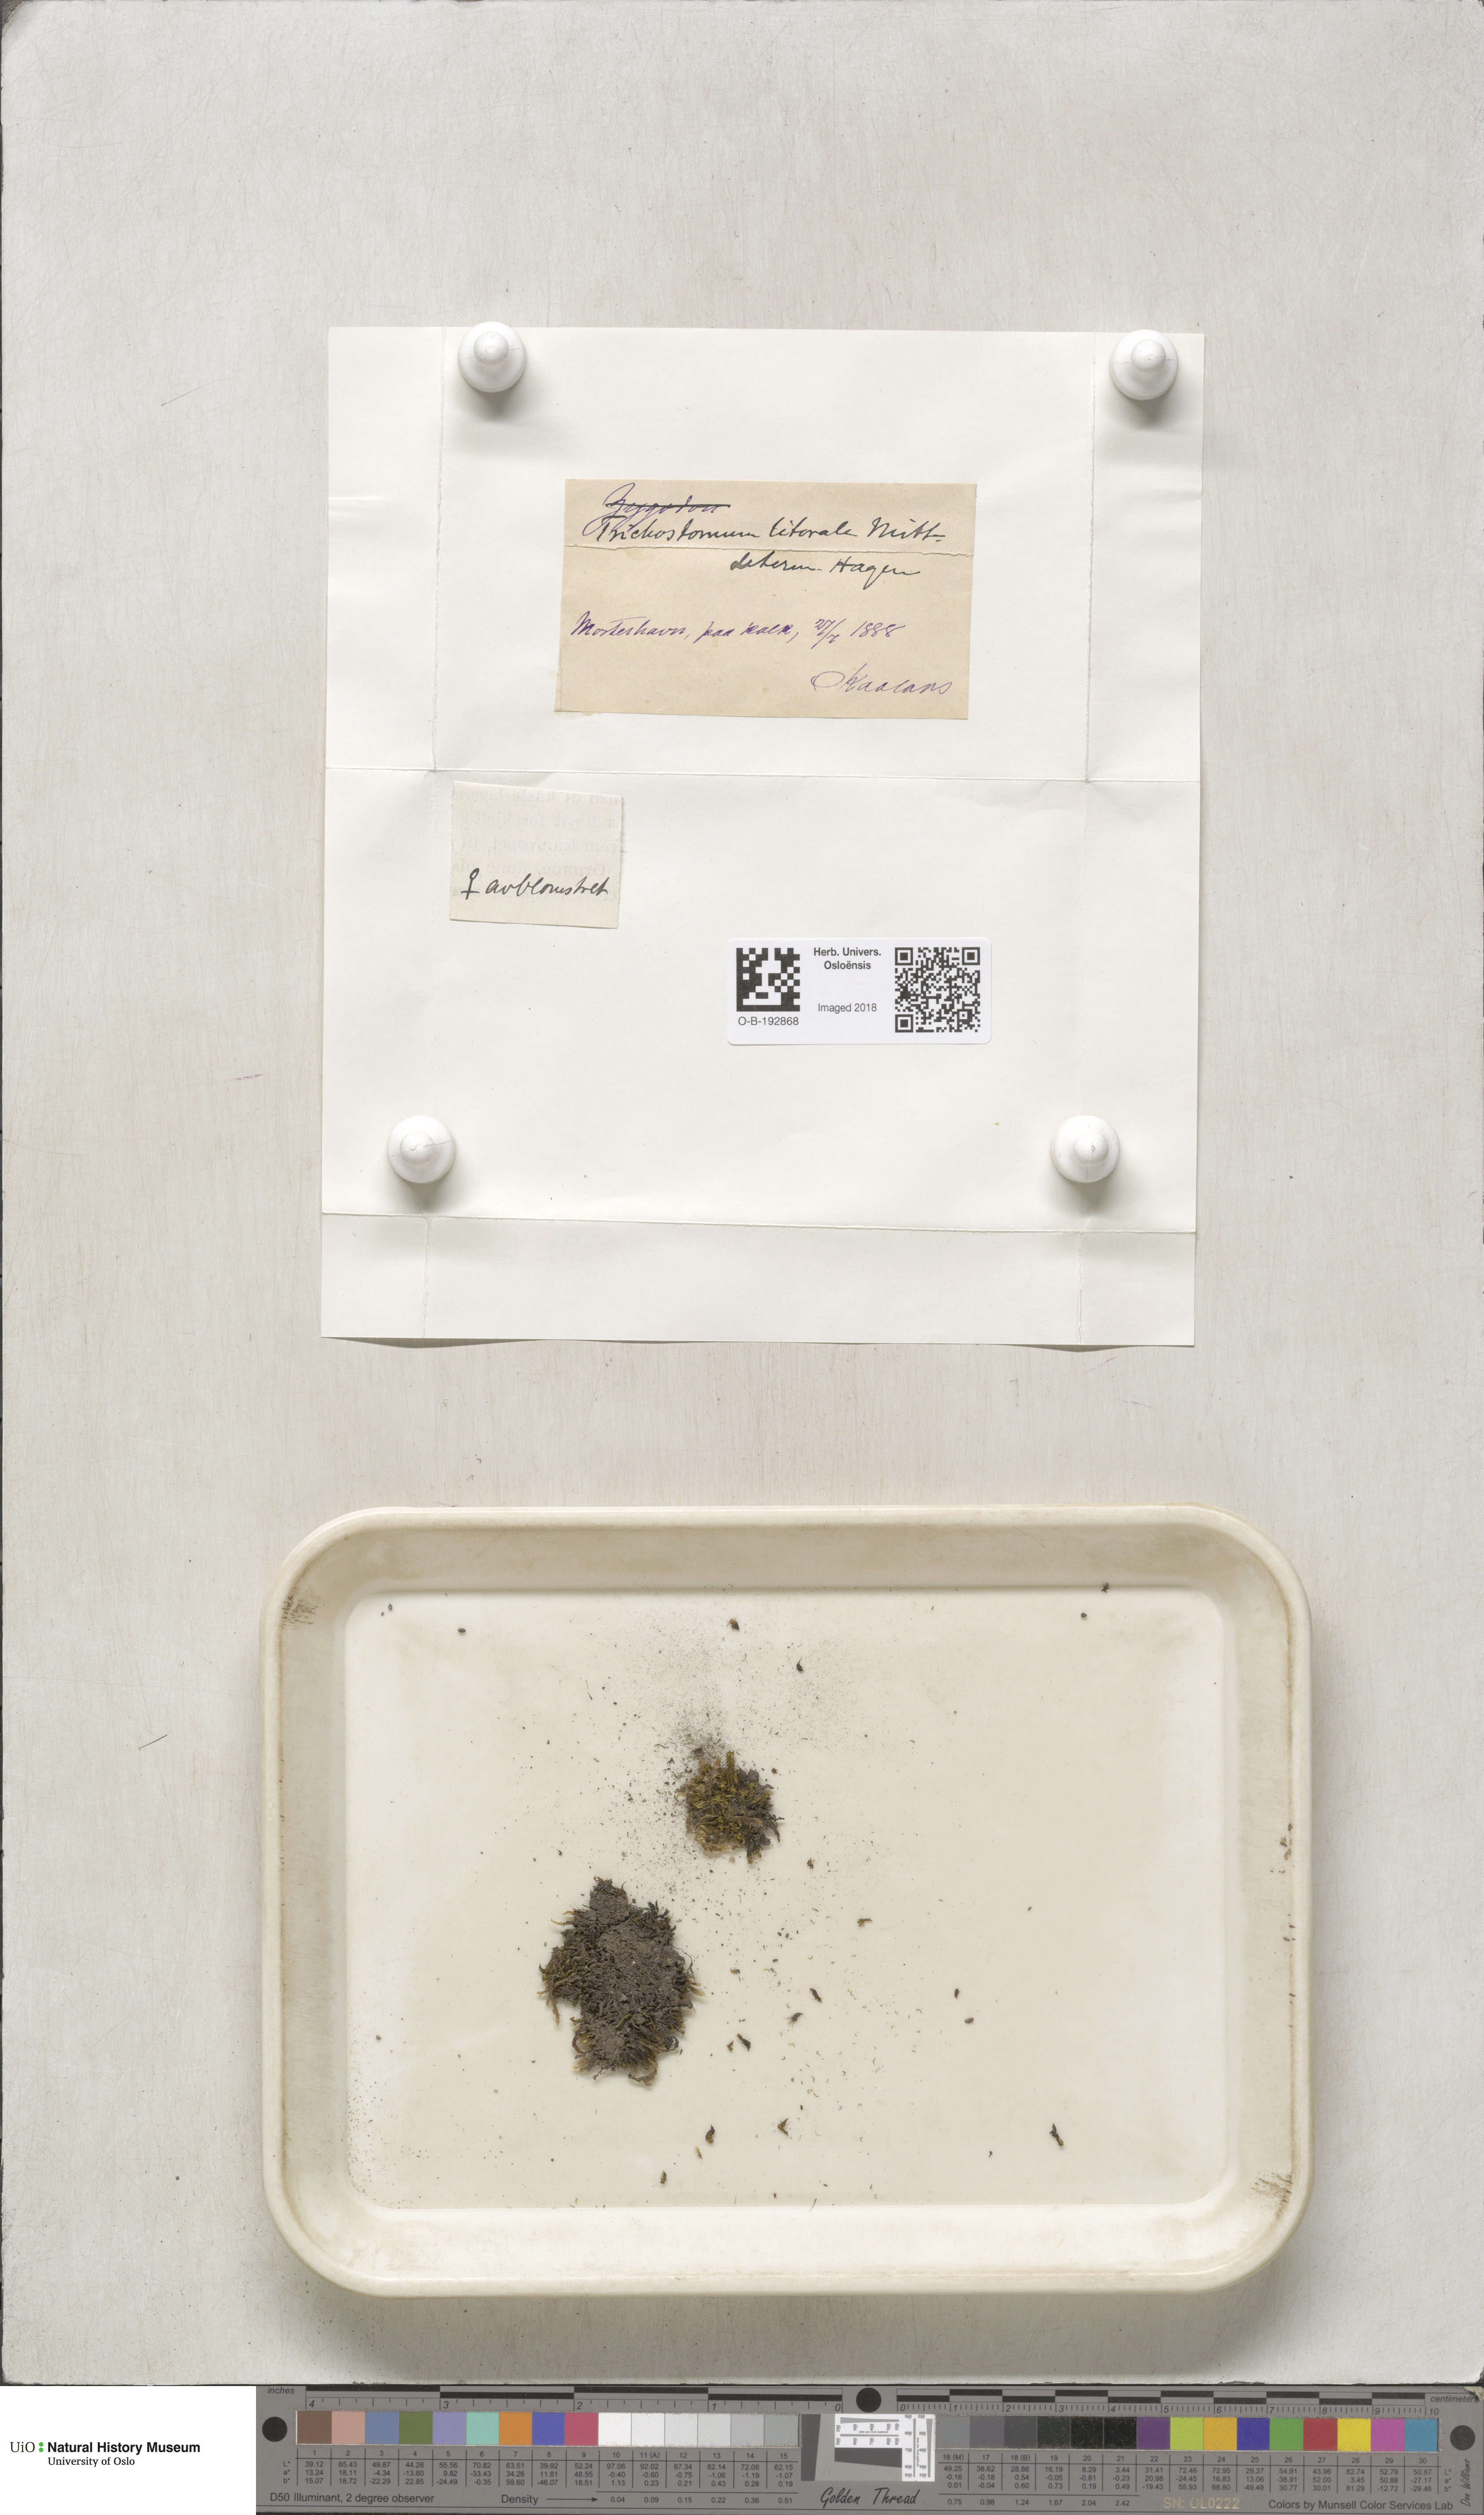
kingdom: Plantae
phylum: Bryophyta
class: Bryopsida
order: Pottiales
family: Pottiaceae
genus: Trichostomum
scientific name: Trichostomum brachydontium
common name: Variable crisp-moss
